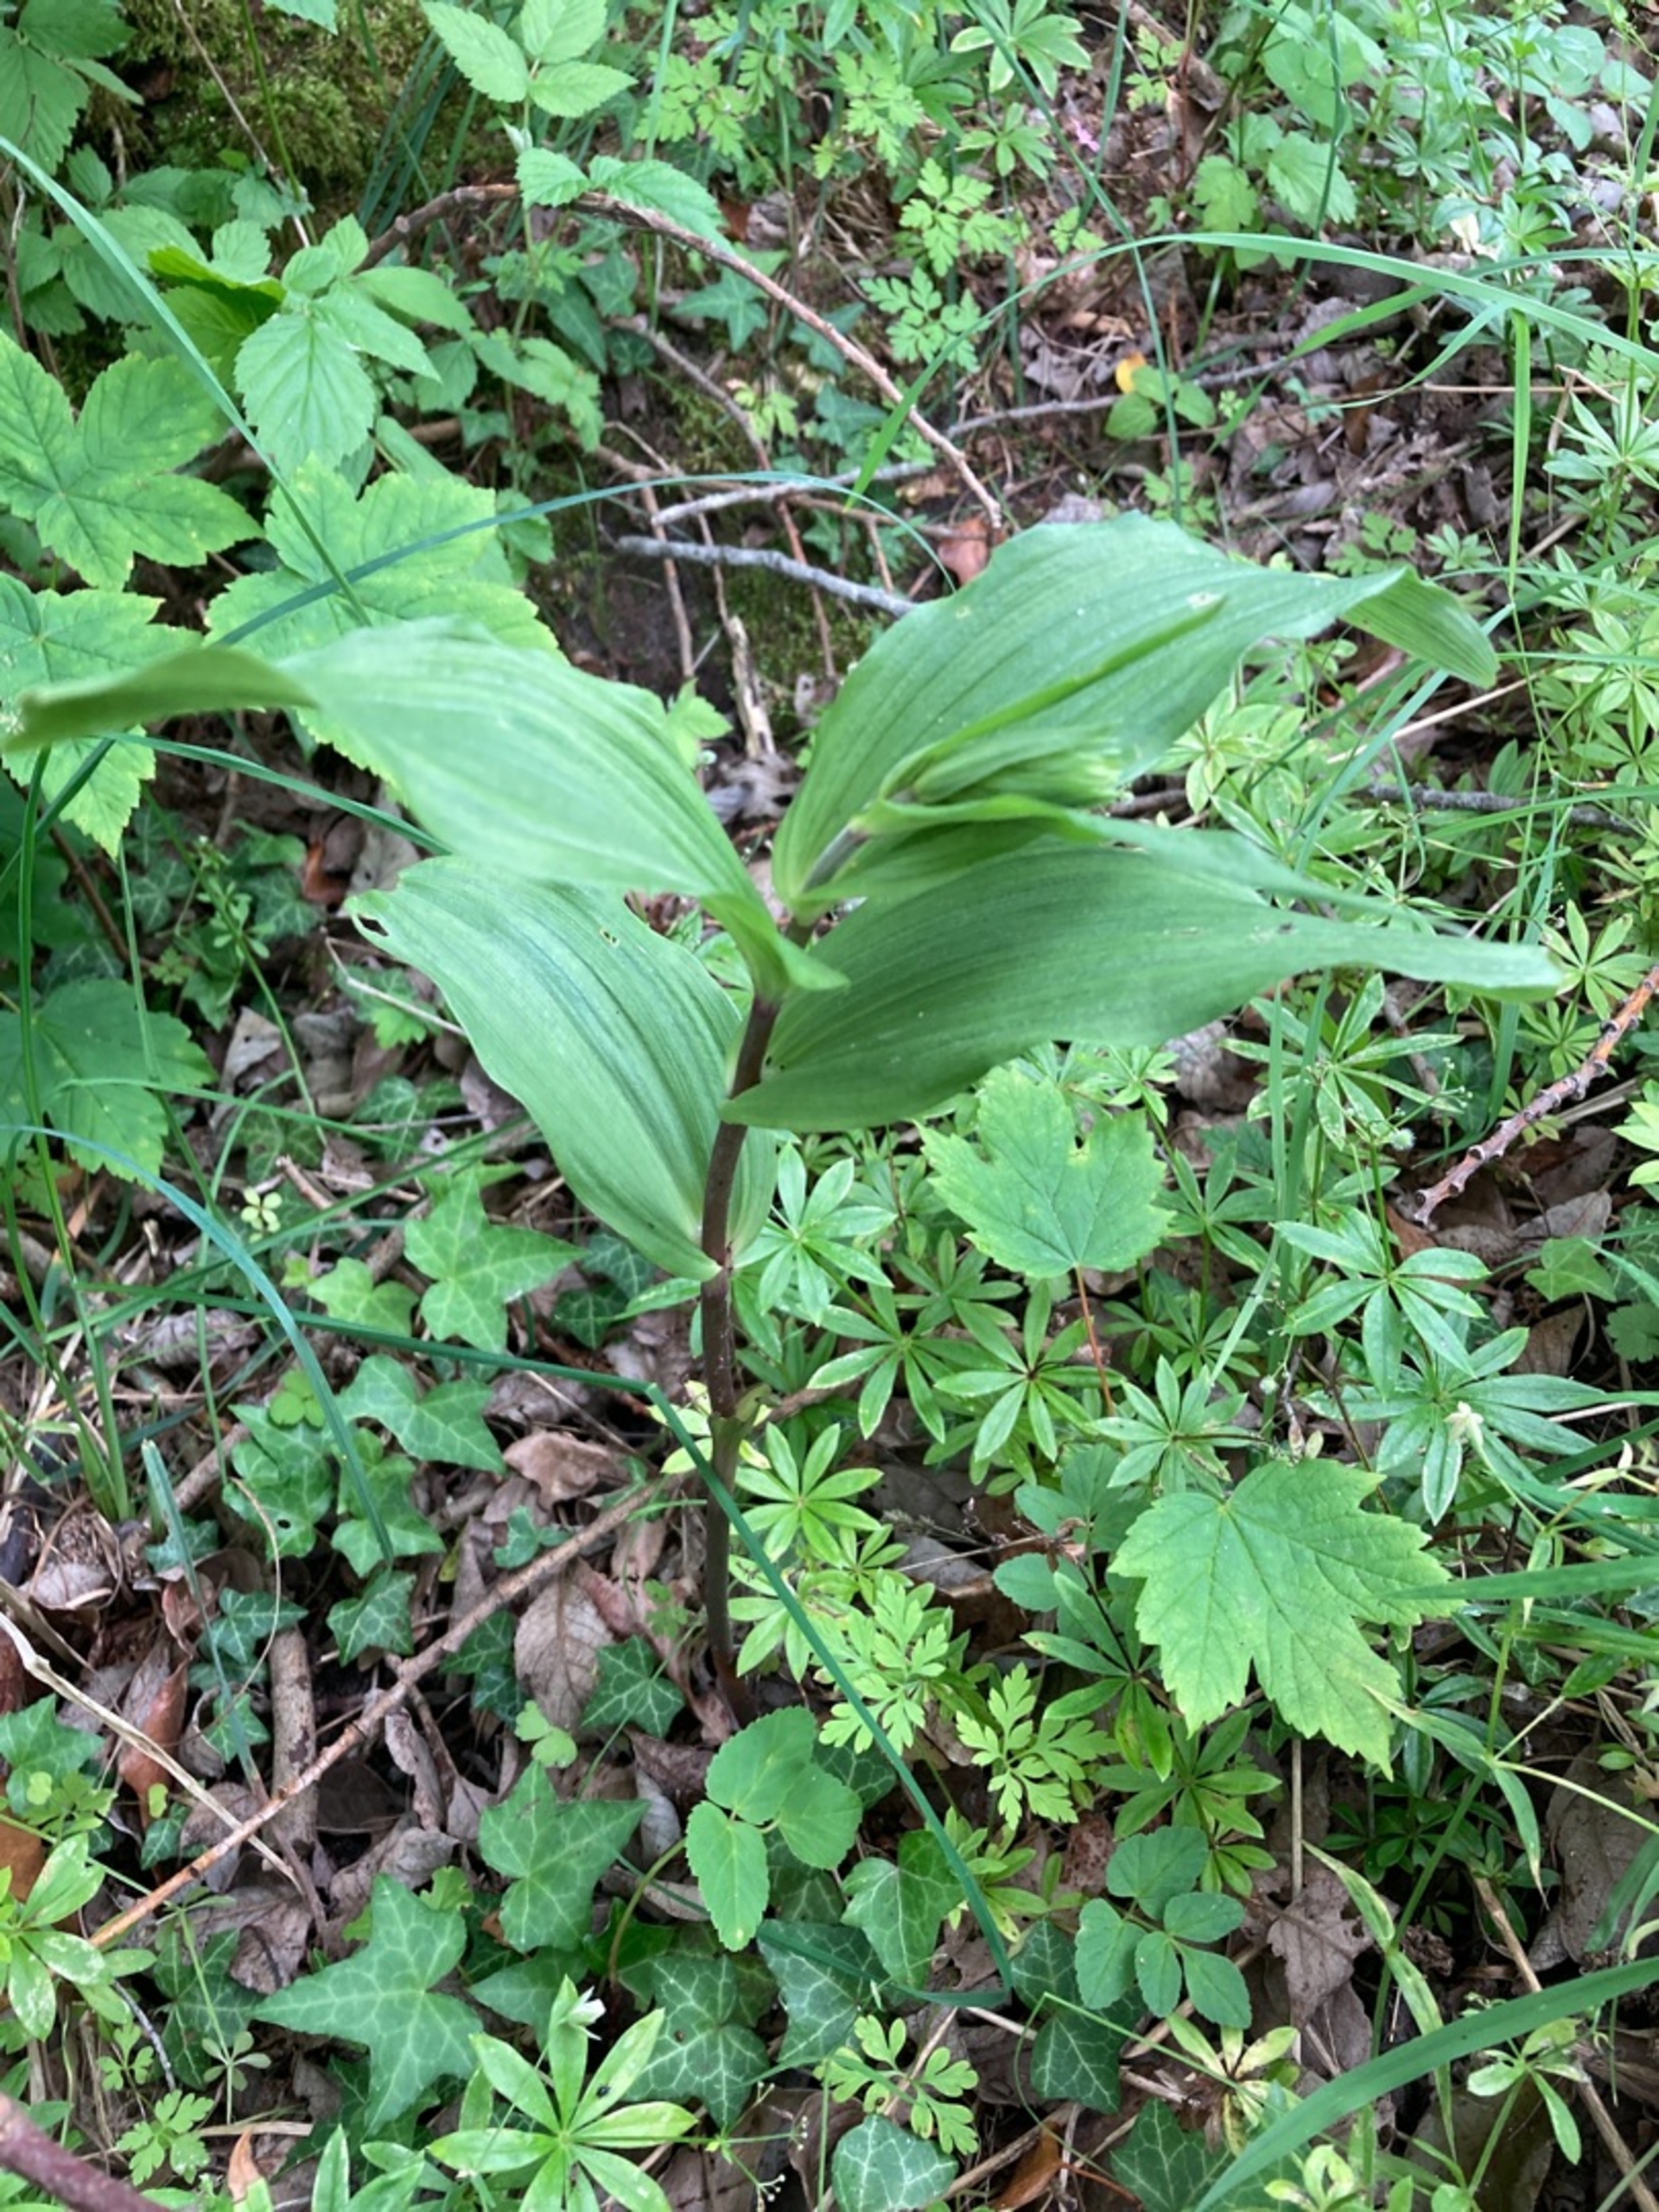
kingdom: Plantae
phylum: Tracheophyta
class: Liliopsida
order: Asparagales
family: Orchidaceae
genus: Epipactis
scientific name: Epipactis helleborine
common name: Skov-hullæbe
